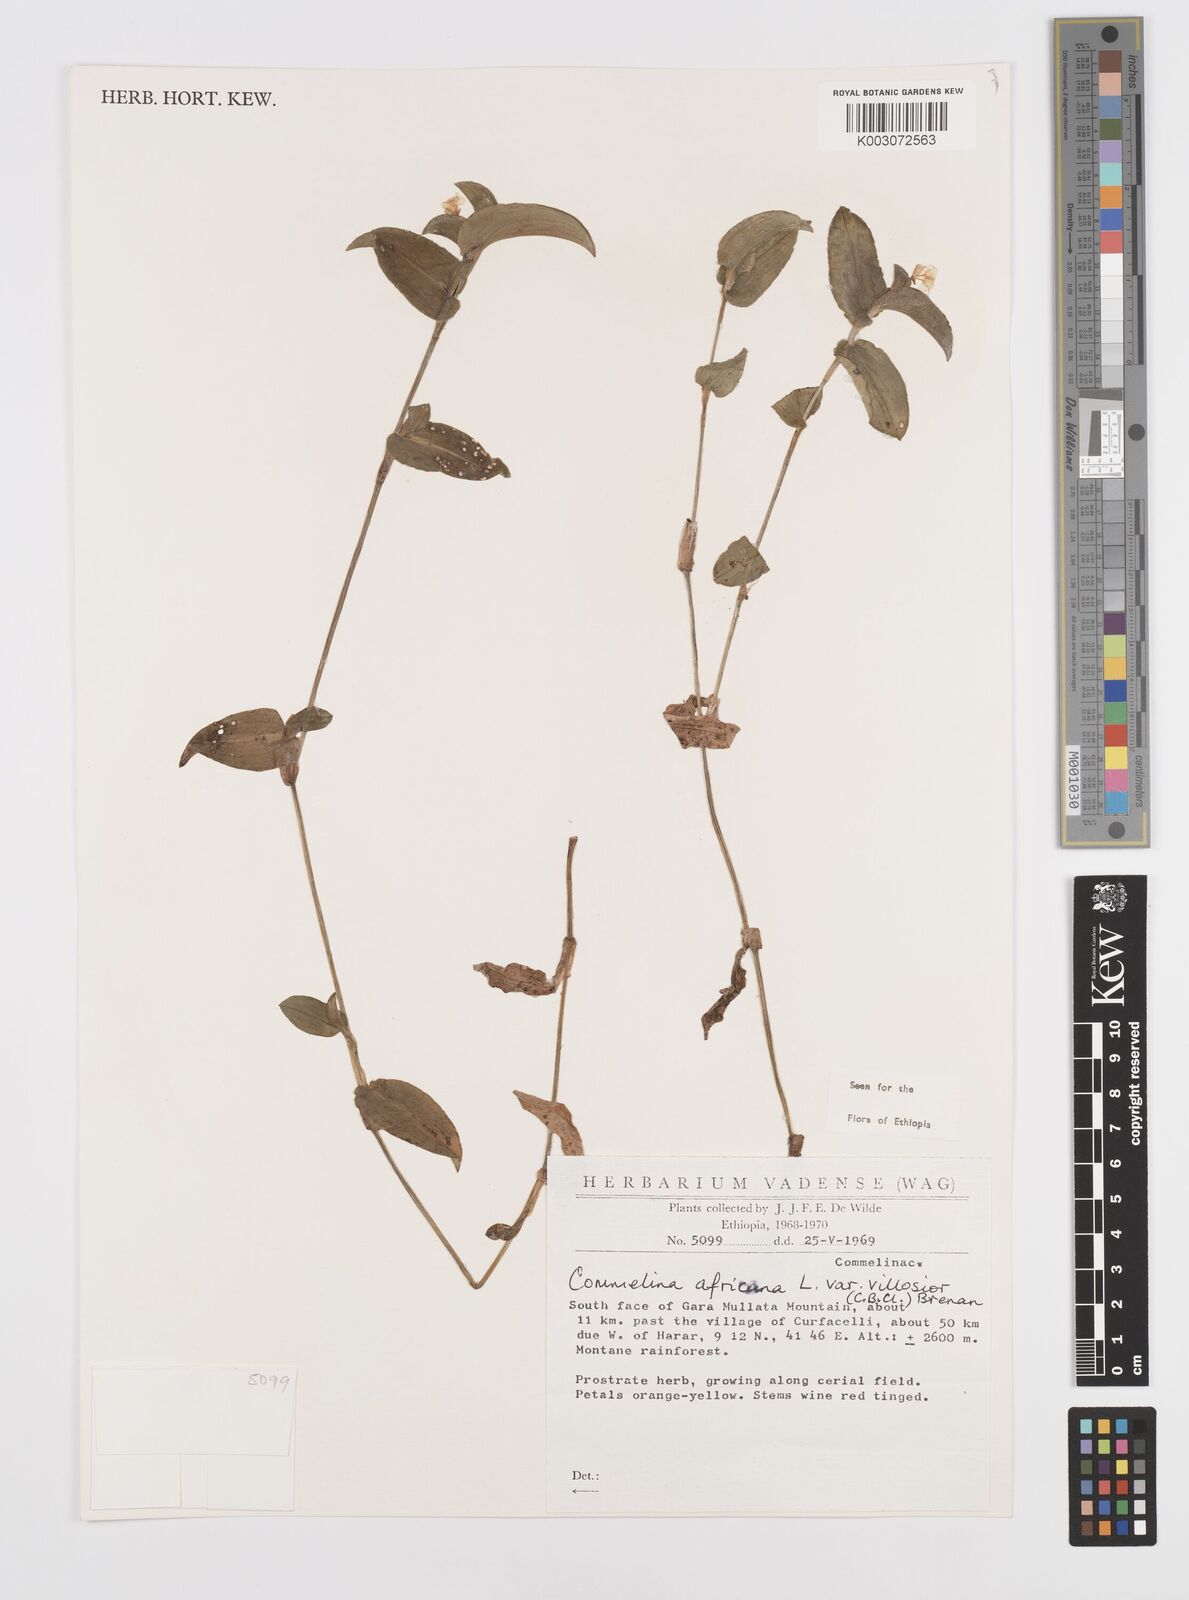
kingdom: Plantae
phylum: Tracheophyta
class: Liliopsida
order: Commelinales
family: Commelinaceae
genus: Commelina
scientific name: Commelina africana
